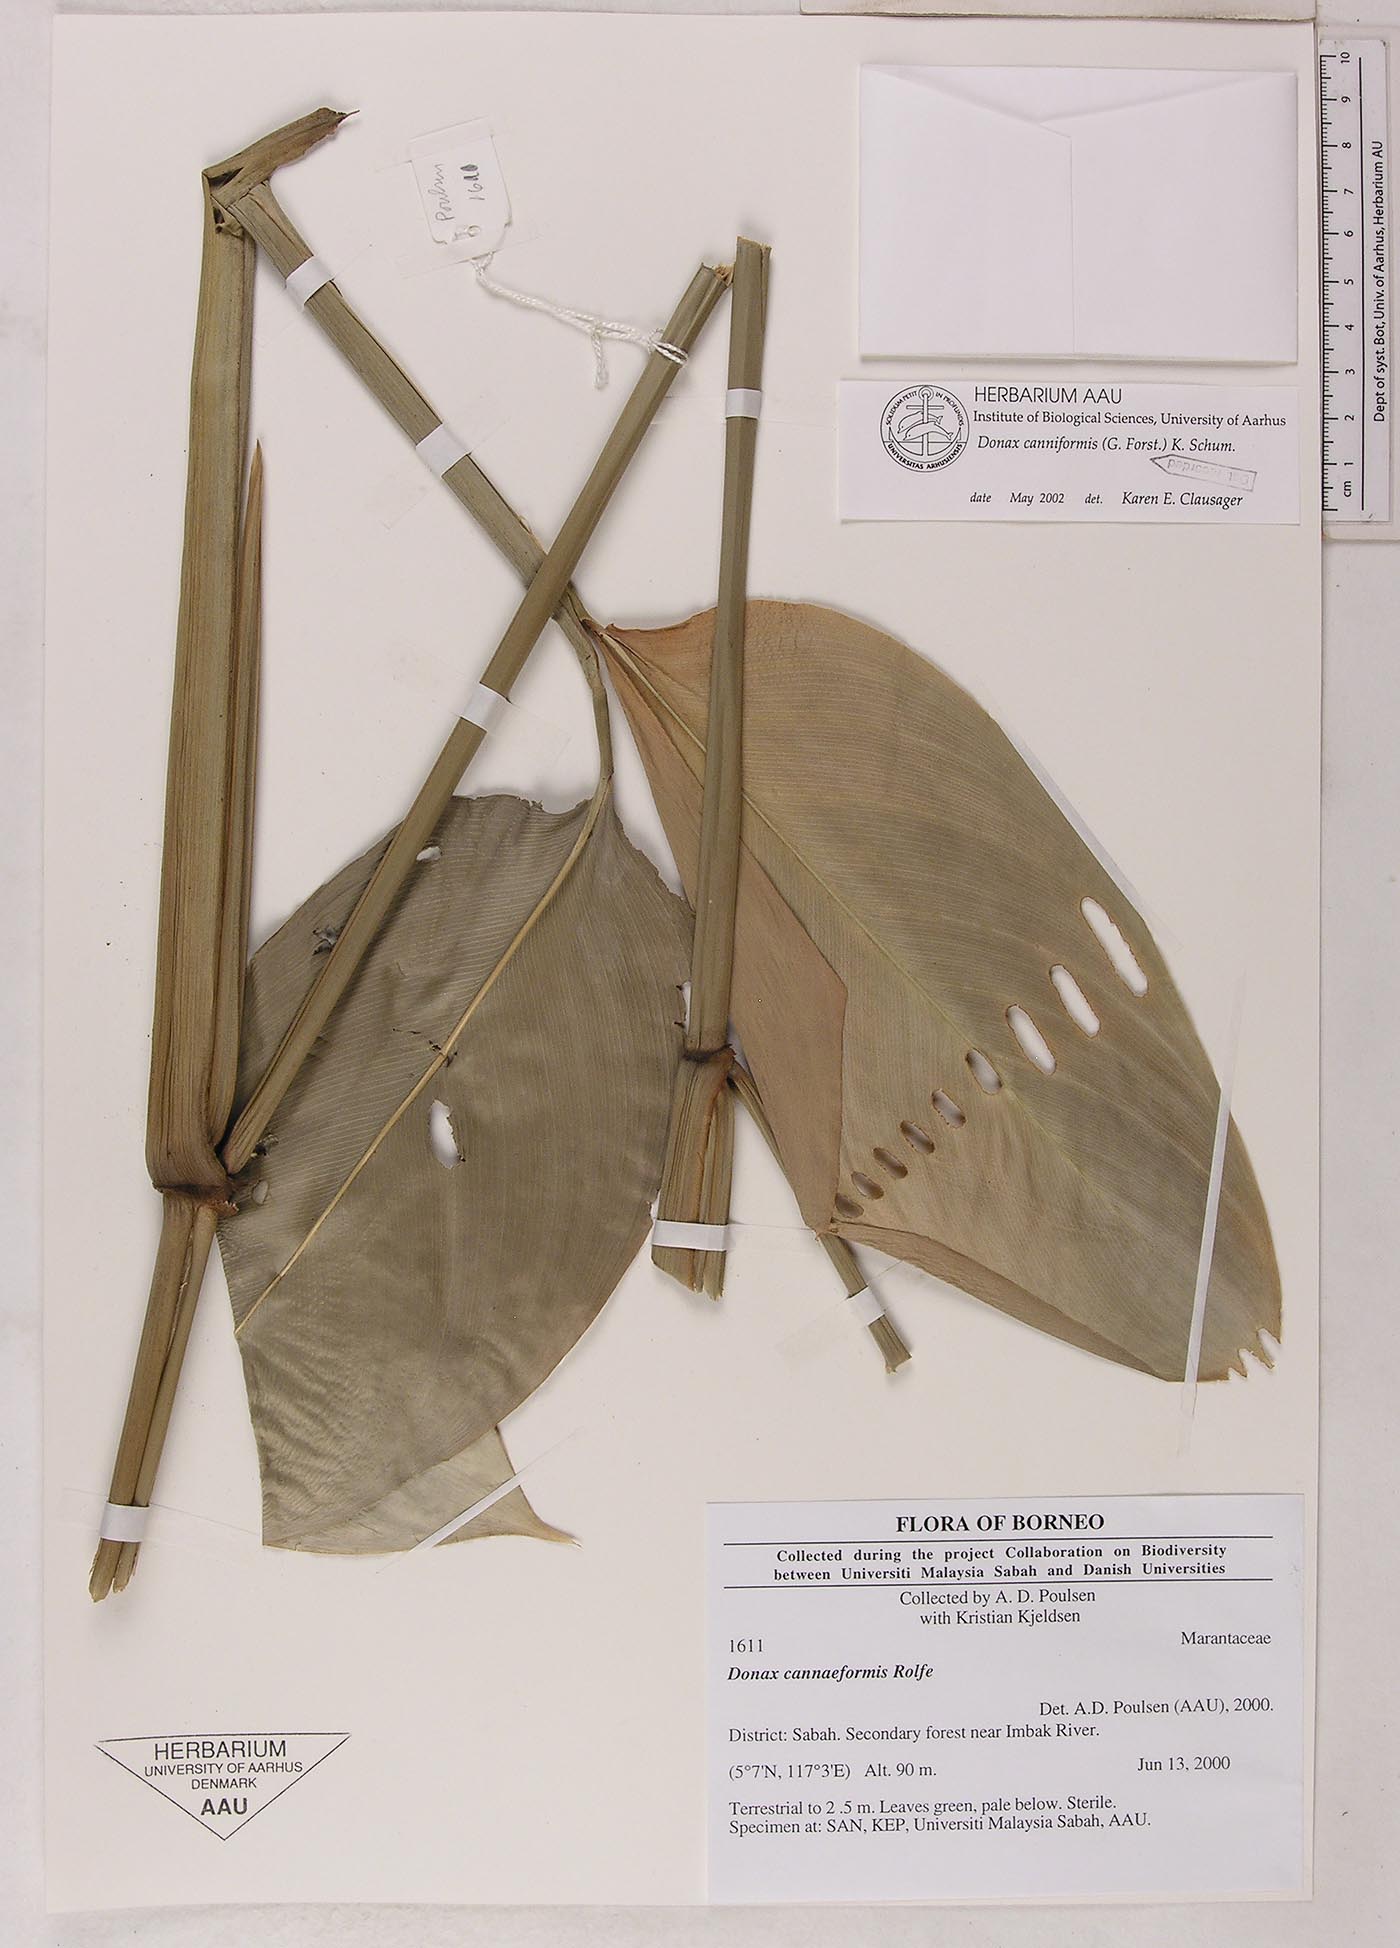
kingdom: Plantae
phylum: Tracheophyta
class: Liliopsida
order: Zingiberales
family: Marantaceae
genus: Donax
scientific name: Donax canniformis
